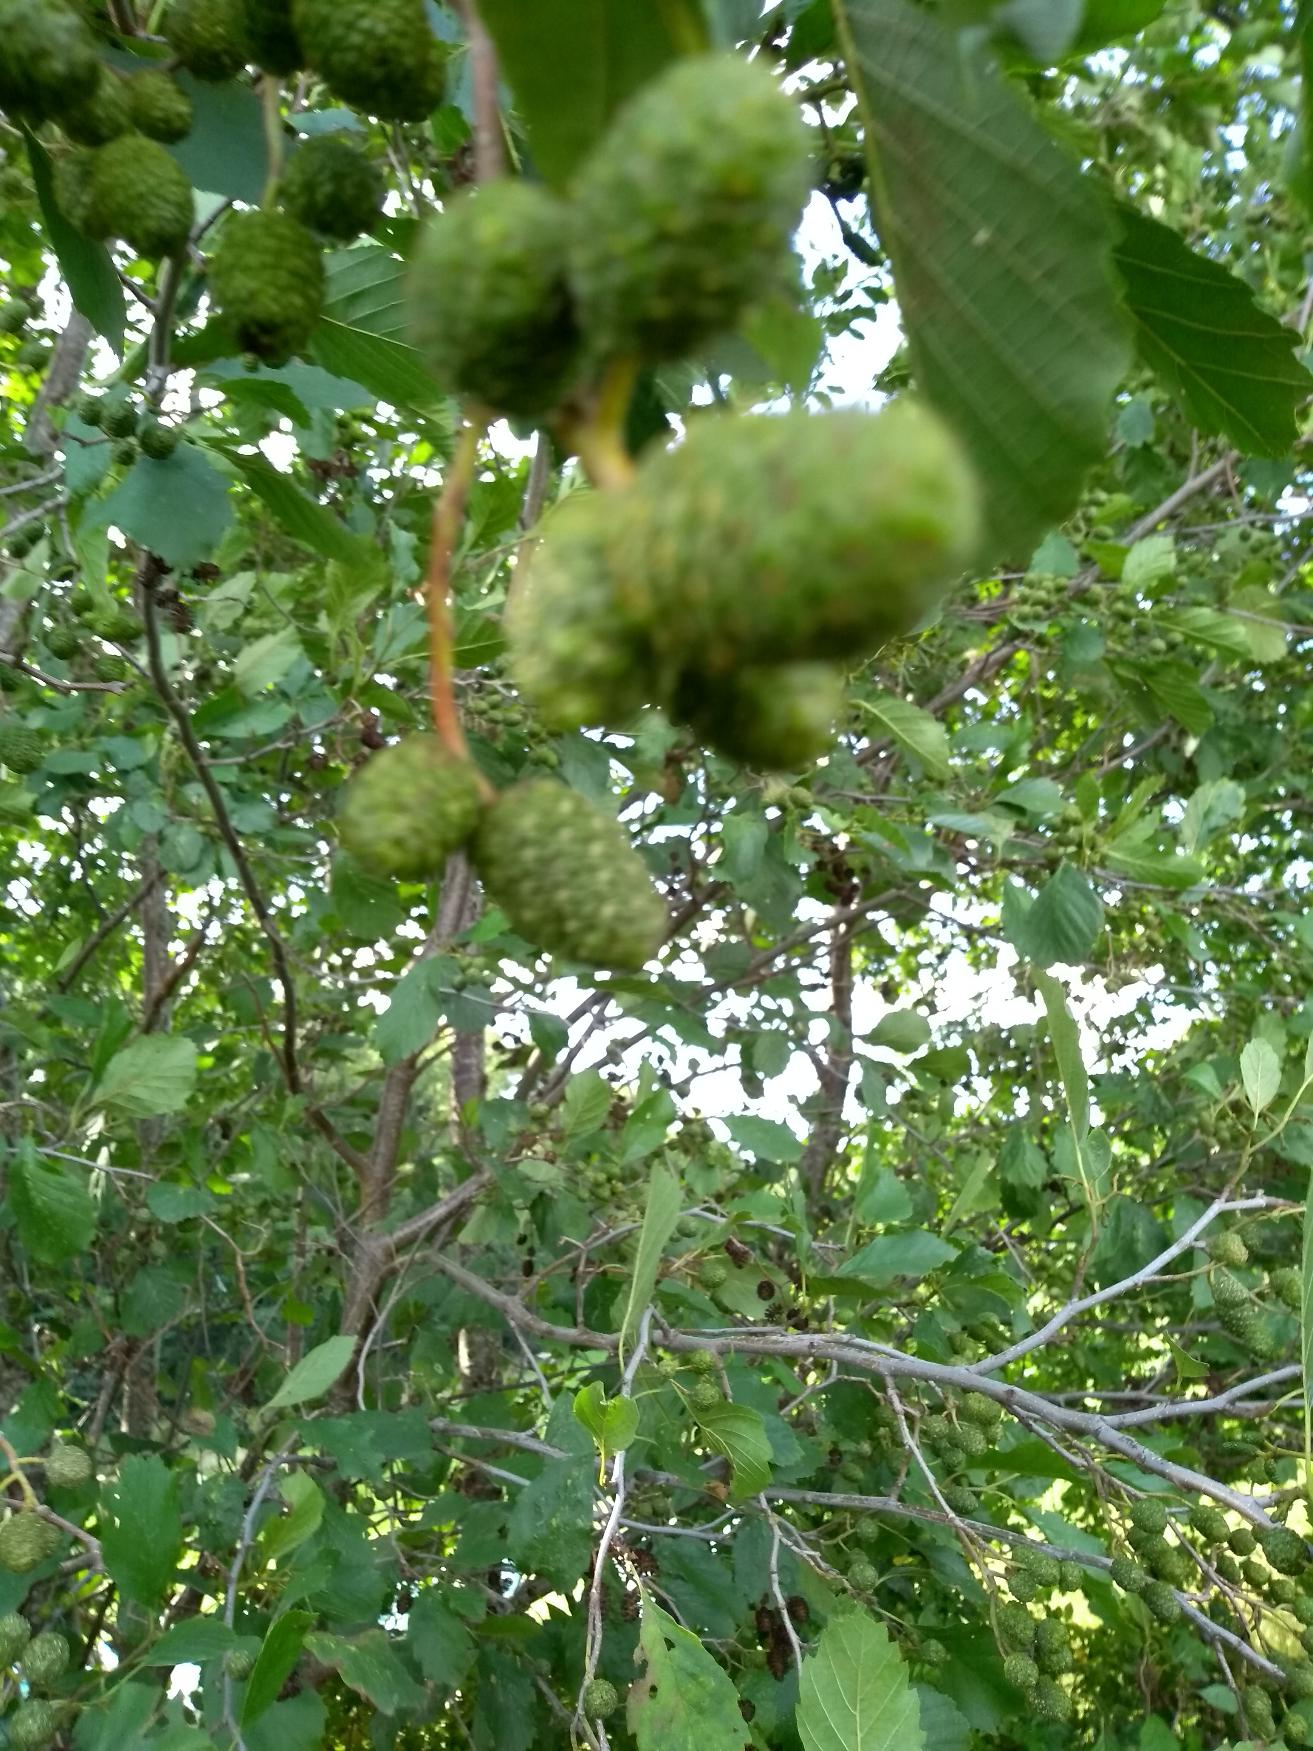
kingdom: Plantae
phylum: Tracheophyta
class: Magnoliopsida
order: Fagales
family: Betulaceae
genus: Alnus
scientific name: Alnus incana
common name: Grå-el/hvid-el
